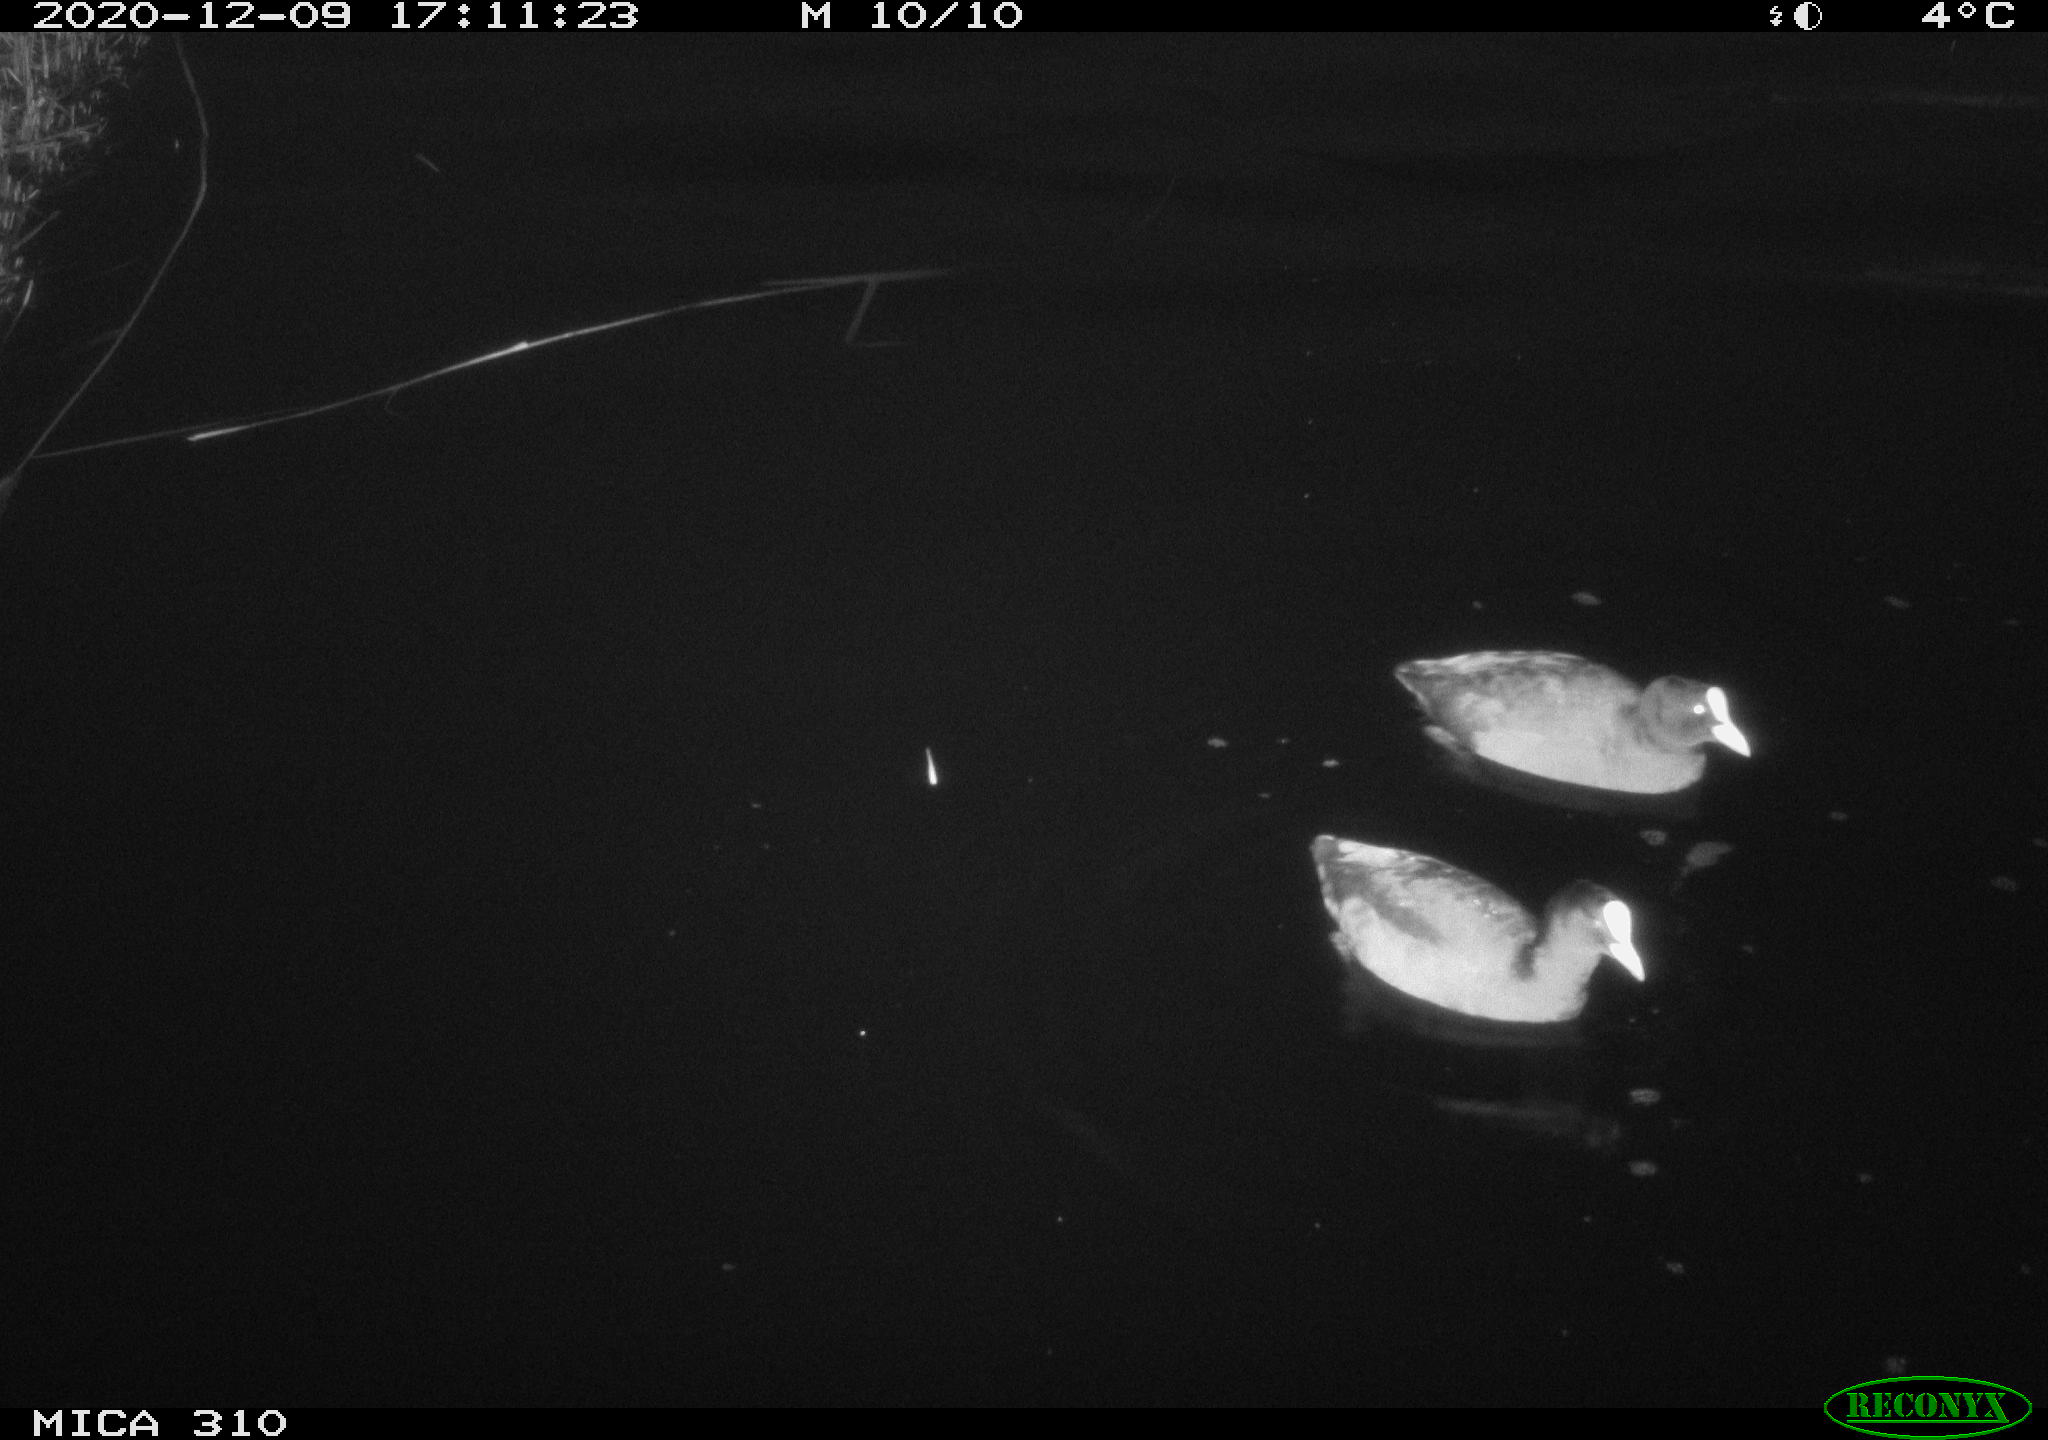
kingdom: Animalia
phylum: Chordata
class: Aves
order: Gruiformes
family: Rallidae
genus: Fulica
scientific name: Fulica atra
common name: Eurasian coot
